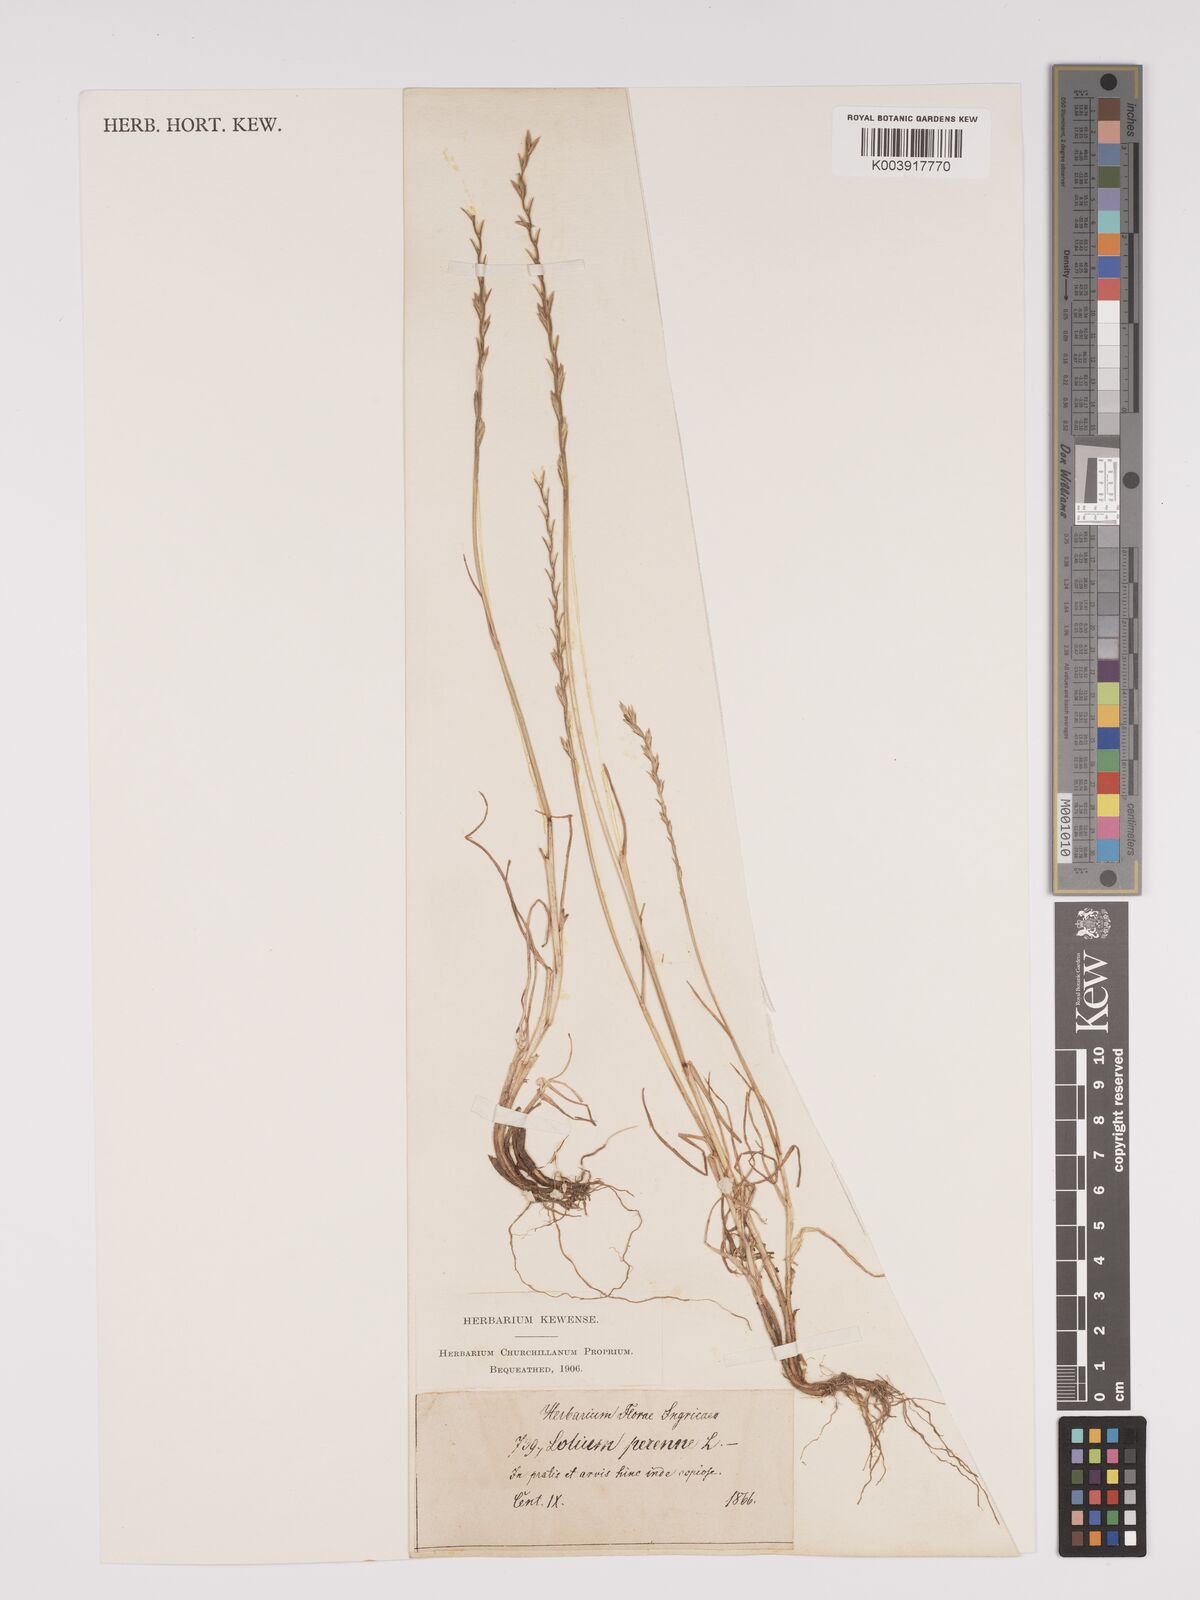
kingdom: Plantae
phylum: Tracheophyta
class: Liliopsida
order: Poales
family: Poaceae
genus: Lolium
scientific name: Lolium perenne
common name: Perennial ryegrass
